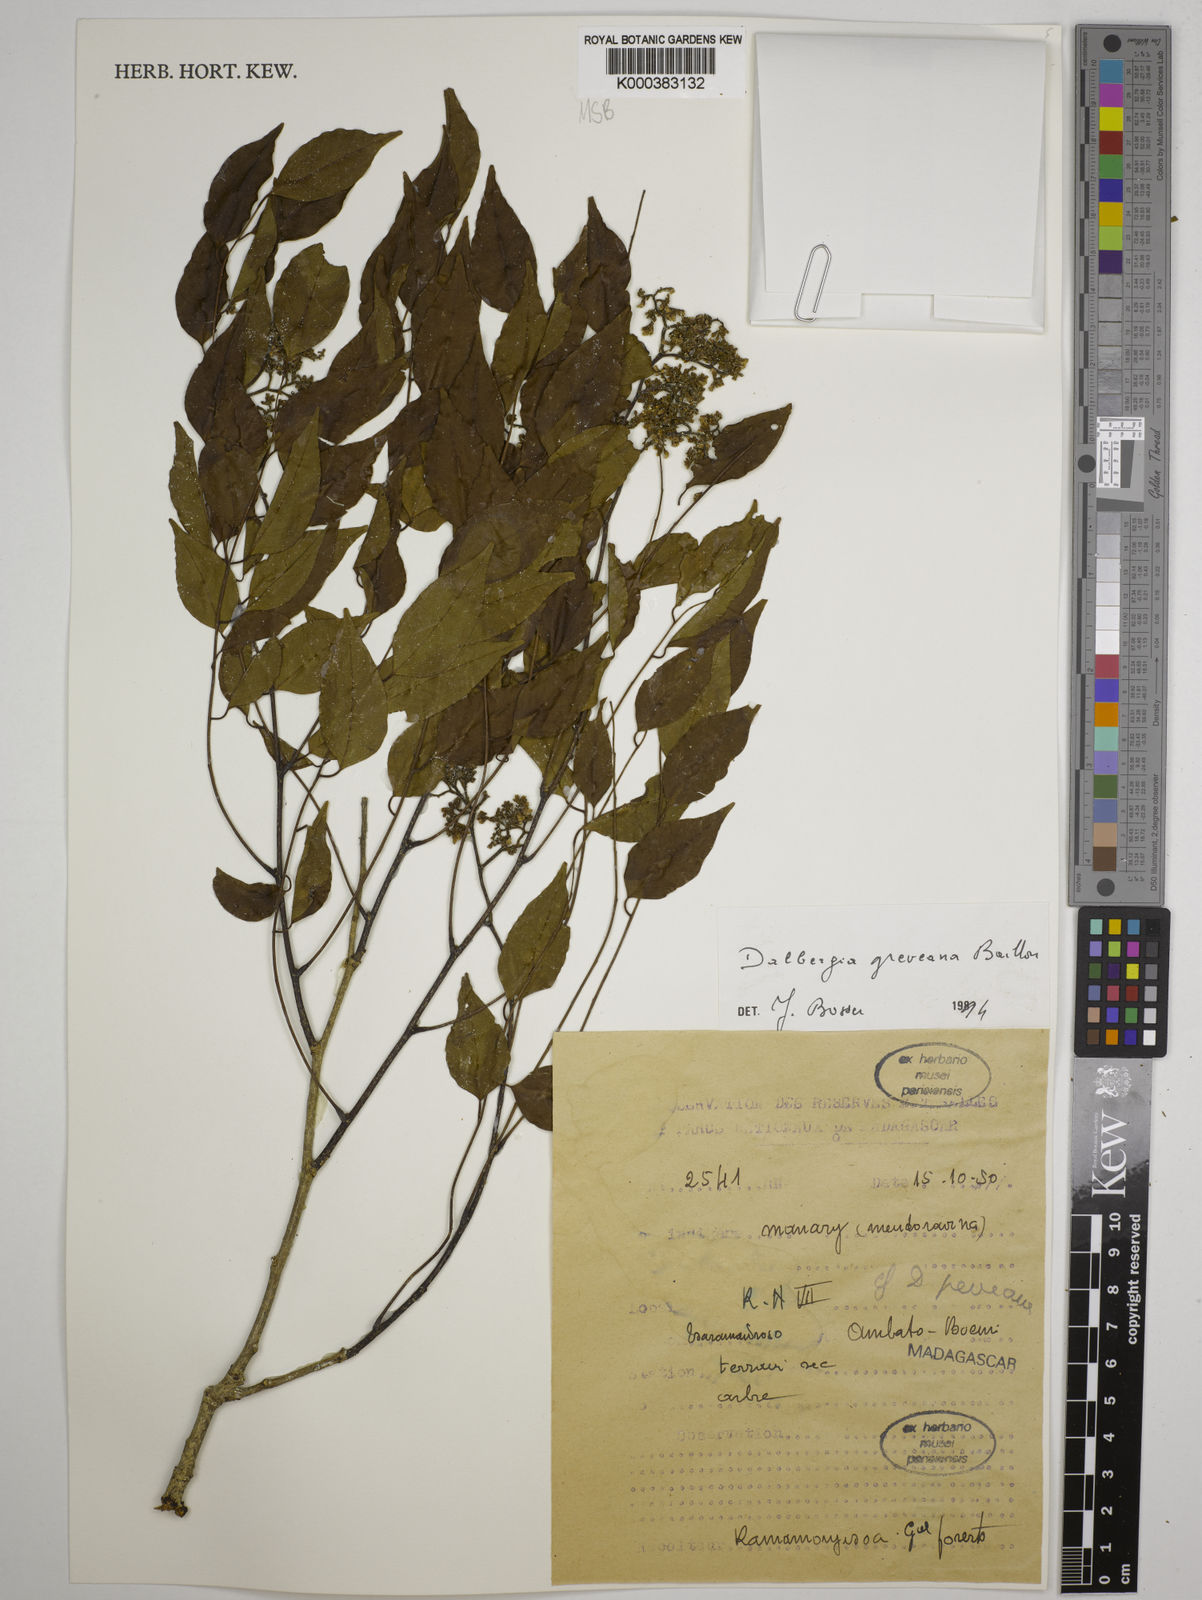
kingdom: Plantae
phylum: Tracheophyta
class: Magnoliopsida
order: Fabales
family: Fabaceae
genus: Dalbergia
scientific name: Dalbergia greveana
